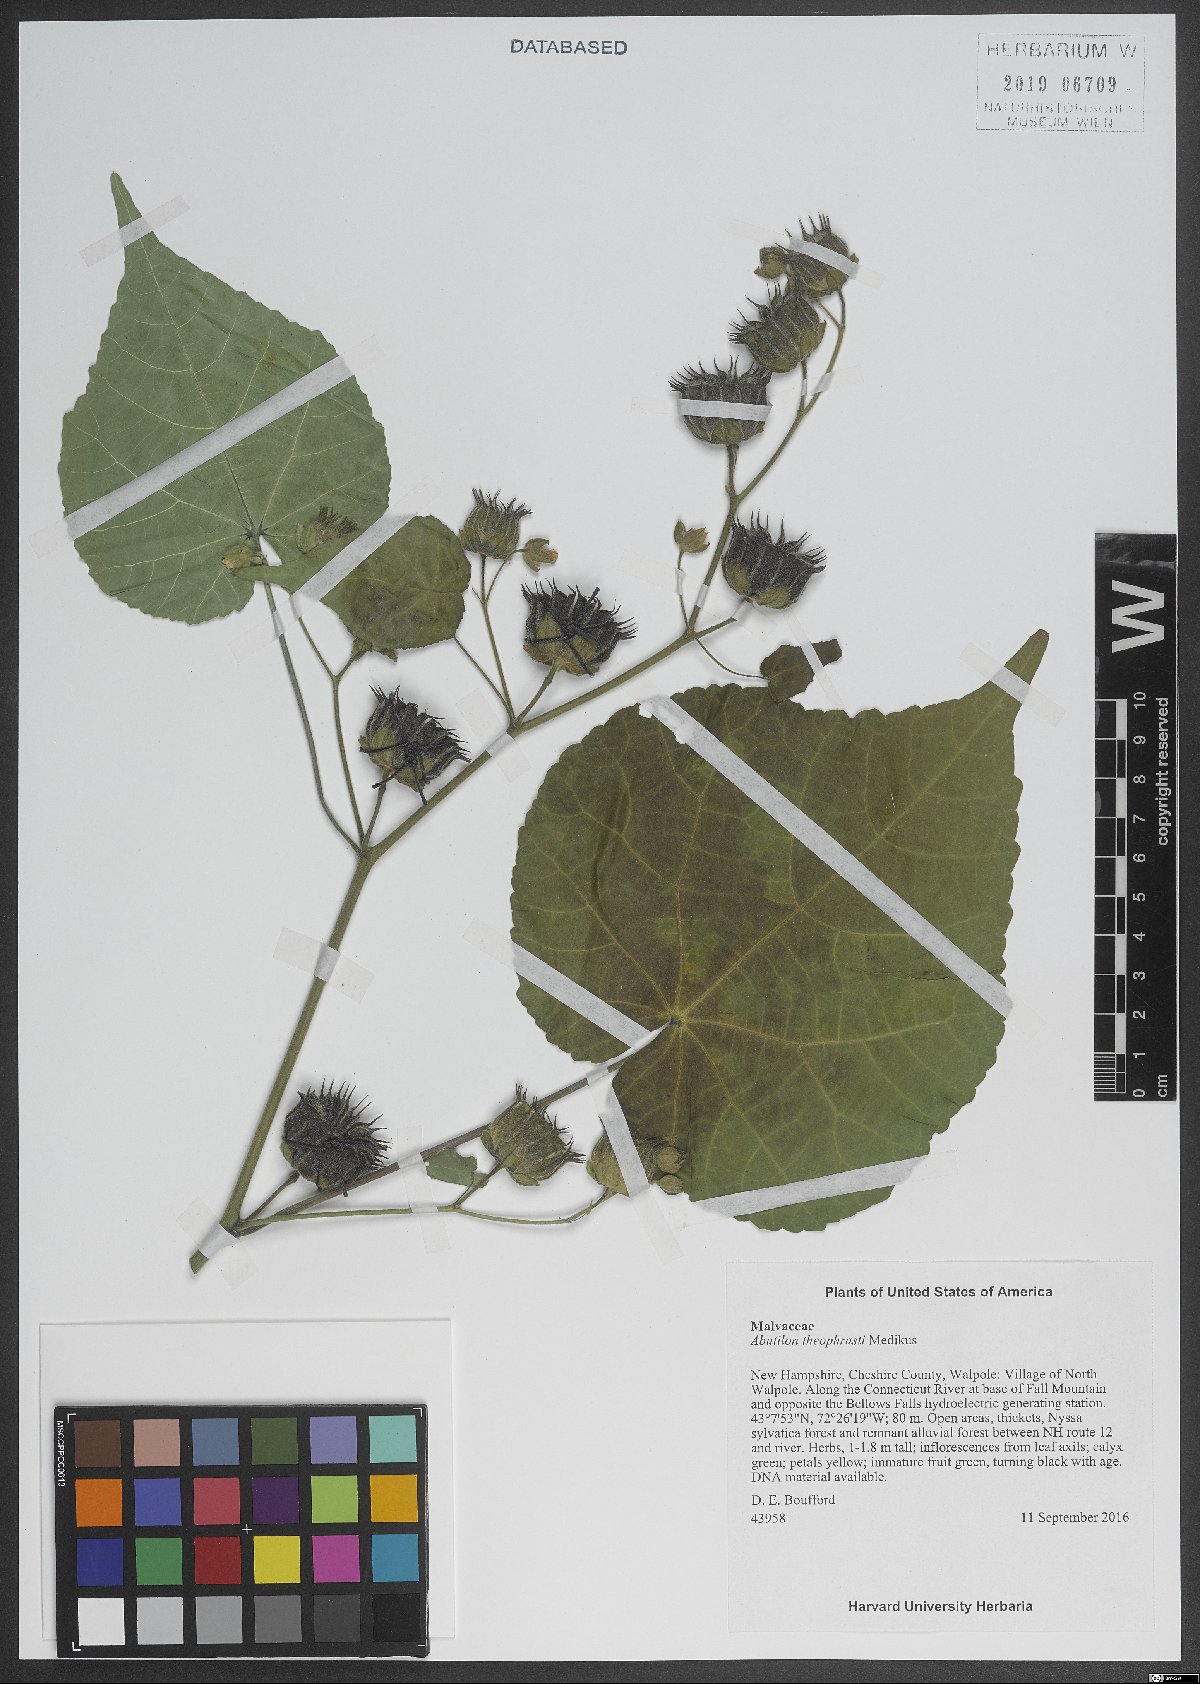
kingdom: Plantae
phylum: Tracheophyta
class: Magnoliopsida
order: Malvales
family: Malvaceae
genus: Abutilon
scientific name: Abutilon theophrasti
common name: Velvetleaf
